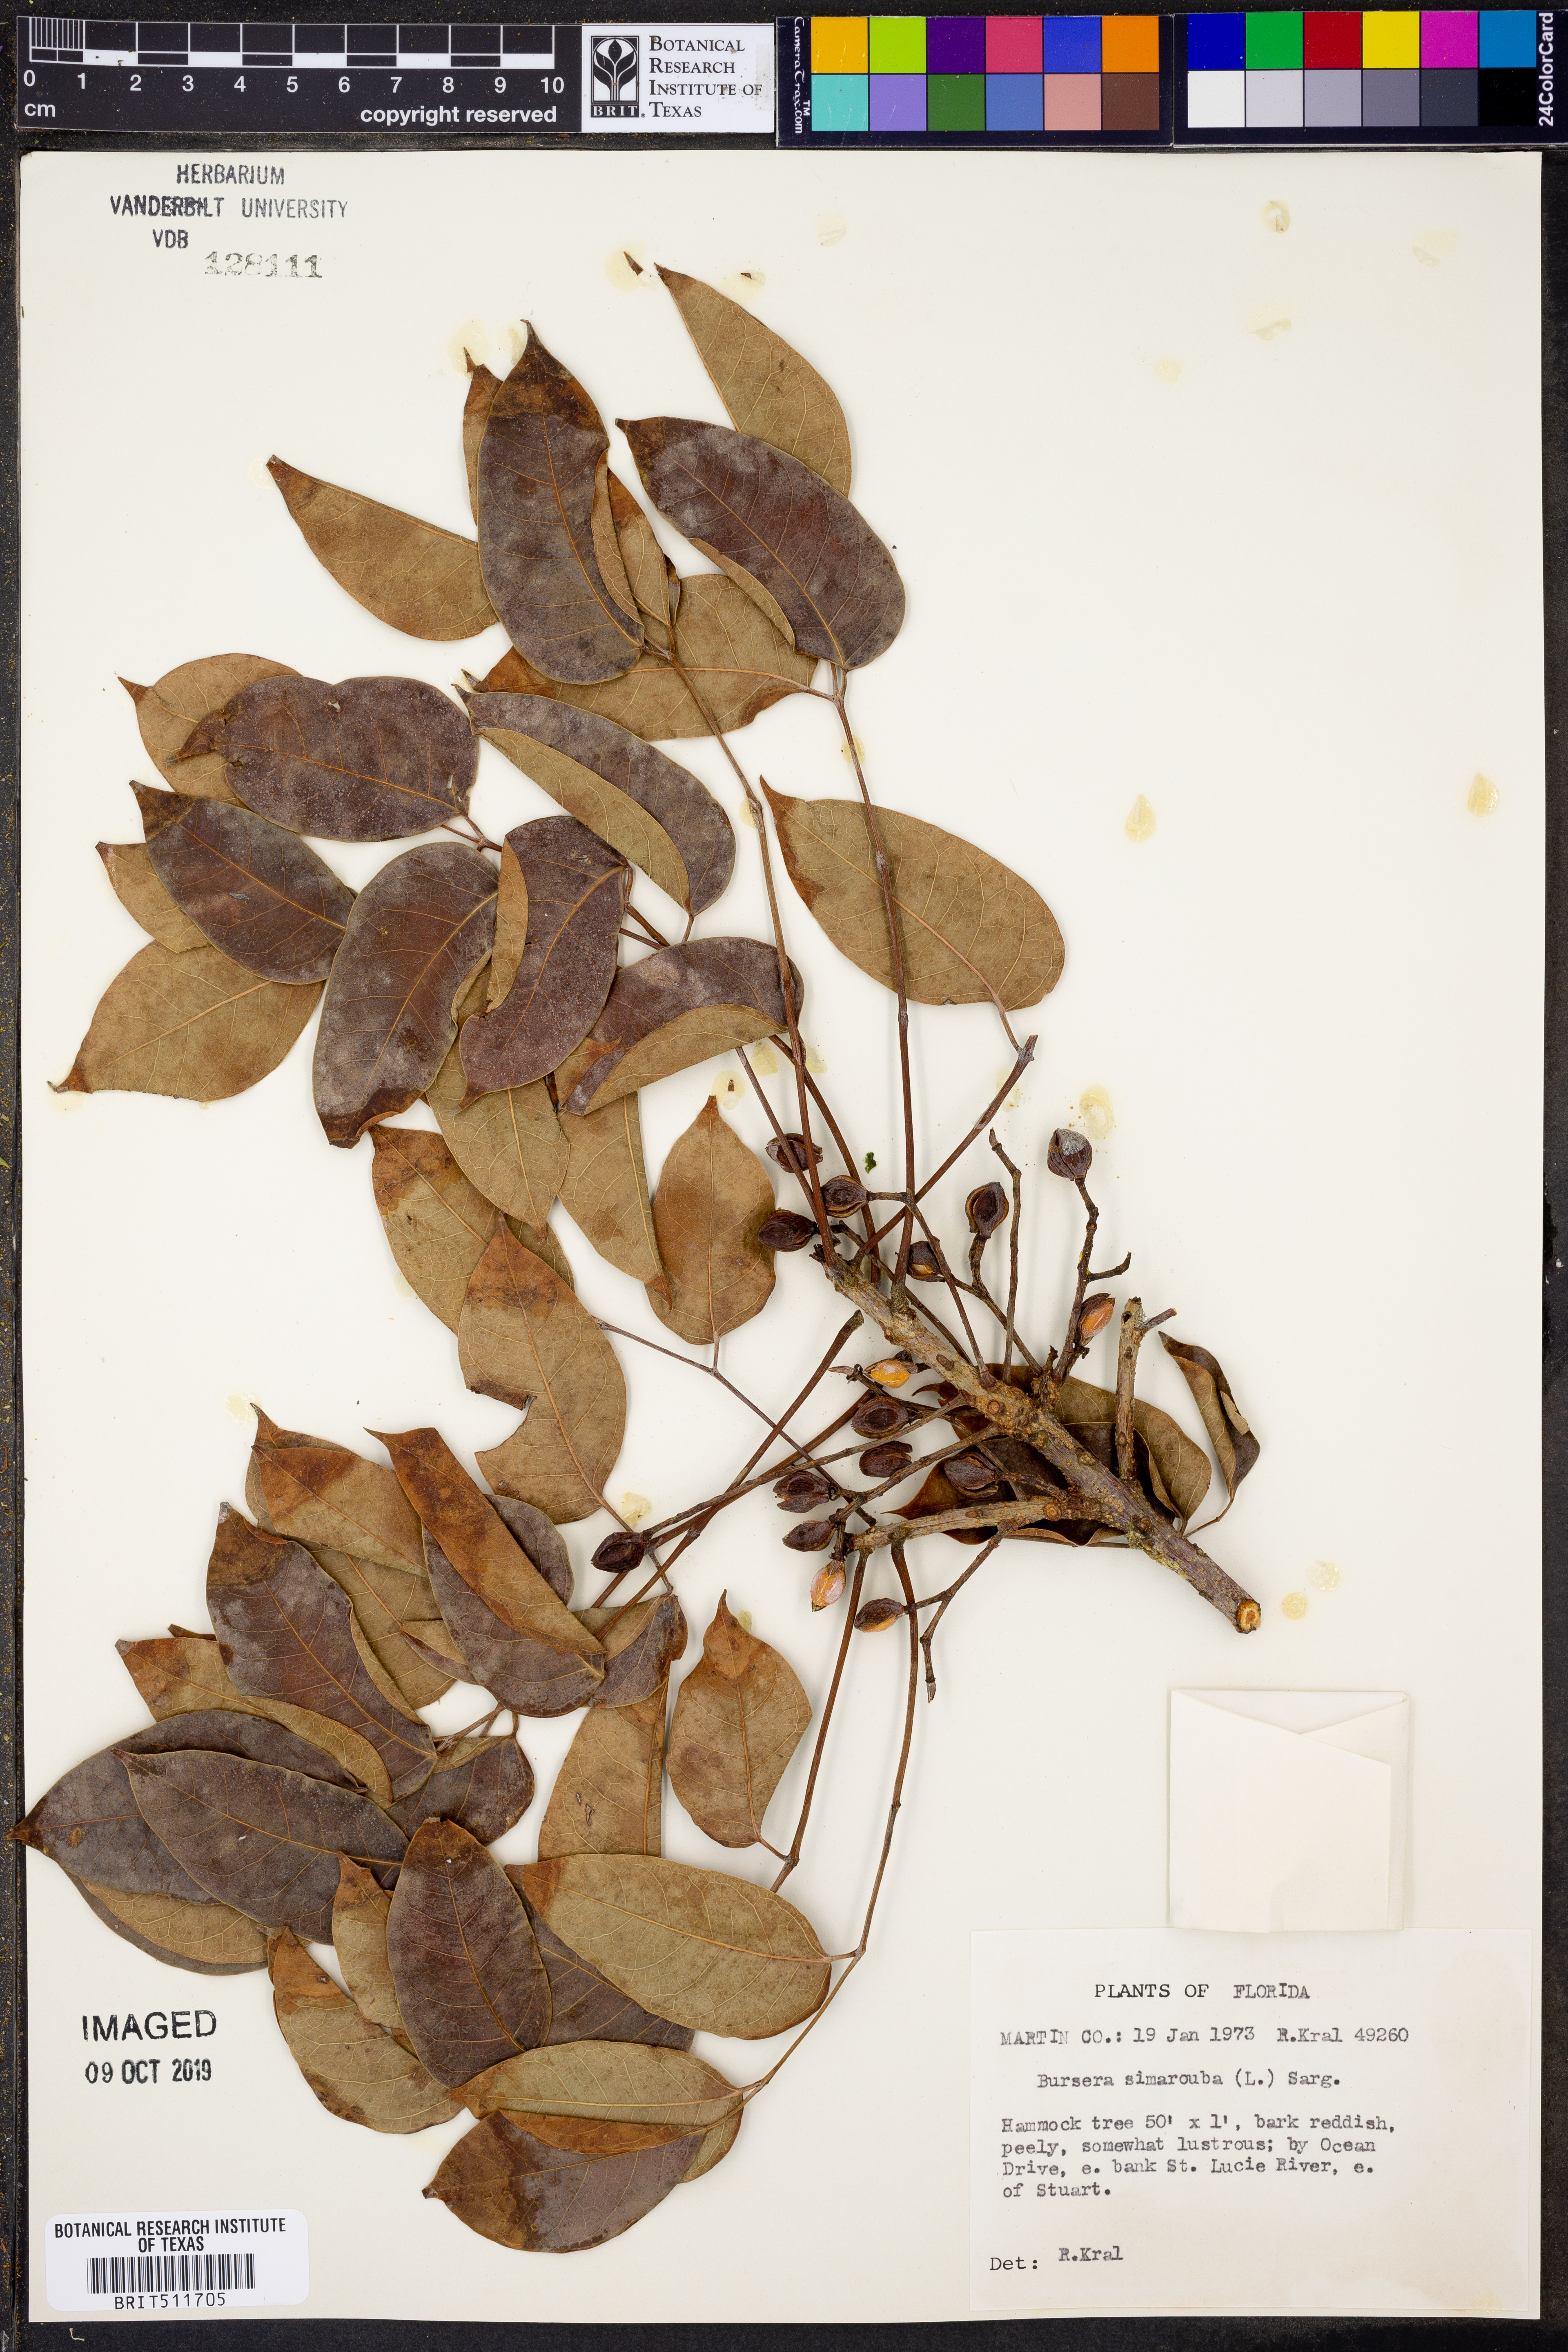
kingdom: Plantae
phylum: Tracheophyta
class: Magnoliopsida
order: Sapindales
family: Burseraceae
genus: Bursera
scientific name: Bursera simaruba
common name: Turpentine tree
